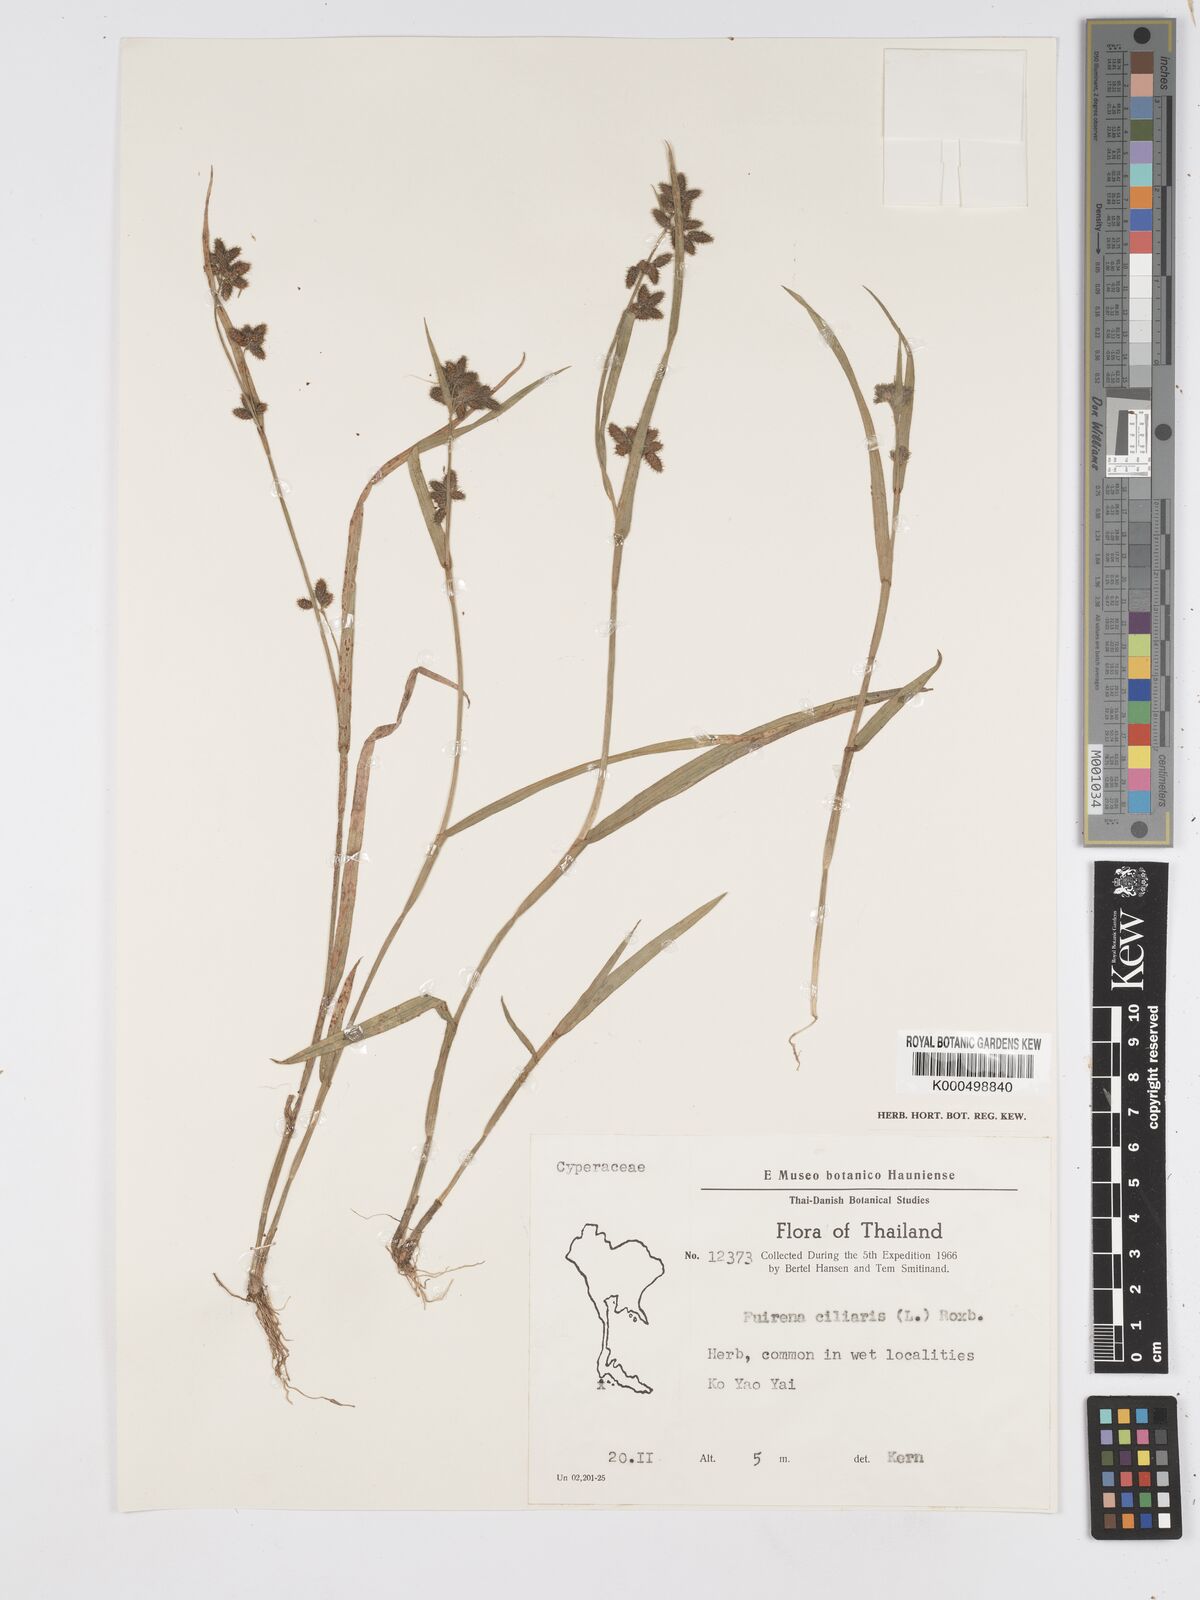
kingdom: Plantae
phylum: Tracheophyta
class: Liliopsida
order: Poales
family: Cyperaceae
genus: Fuirena
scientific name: Fuirena ciliaris
